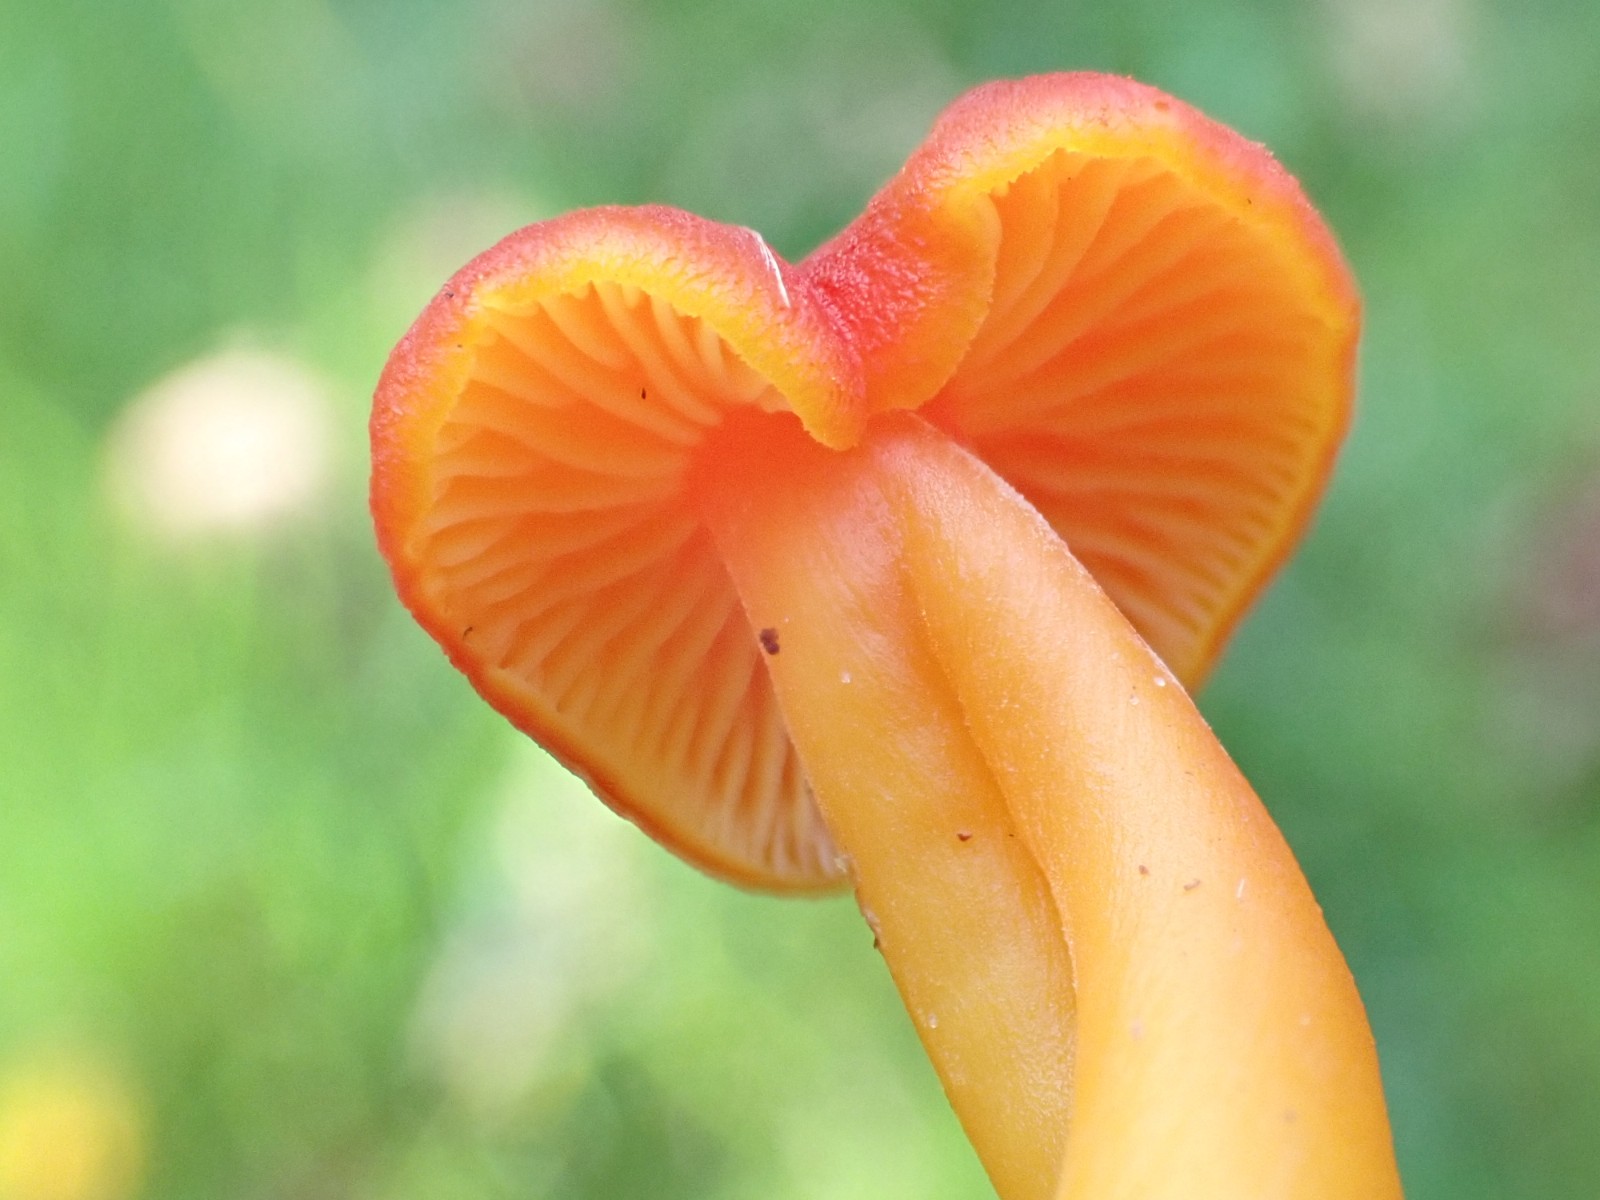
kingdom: Fungi
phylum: Basidiomycota
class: Agaricomycetes
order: Agaricales
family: Hygrophoraceae
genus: Hygrocybe
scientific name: Hygrocybe miniata
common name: mønje-vokshat
